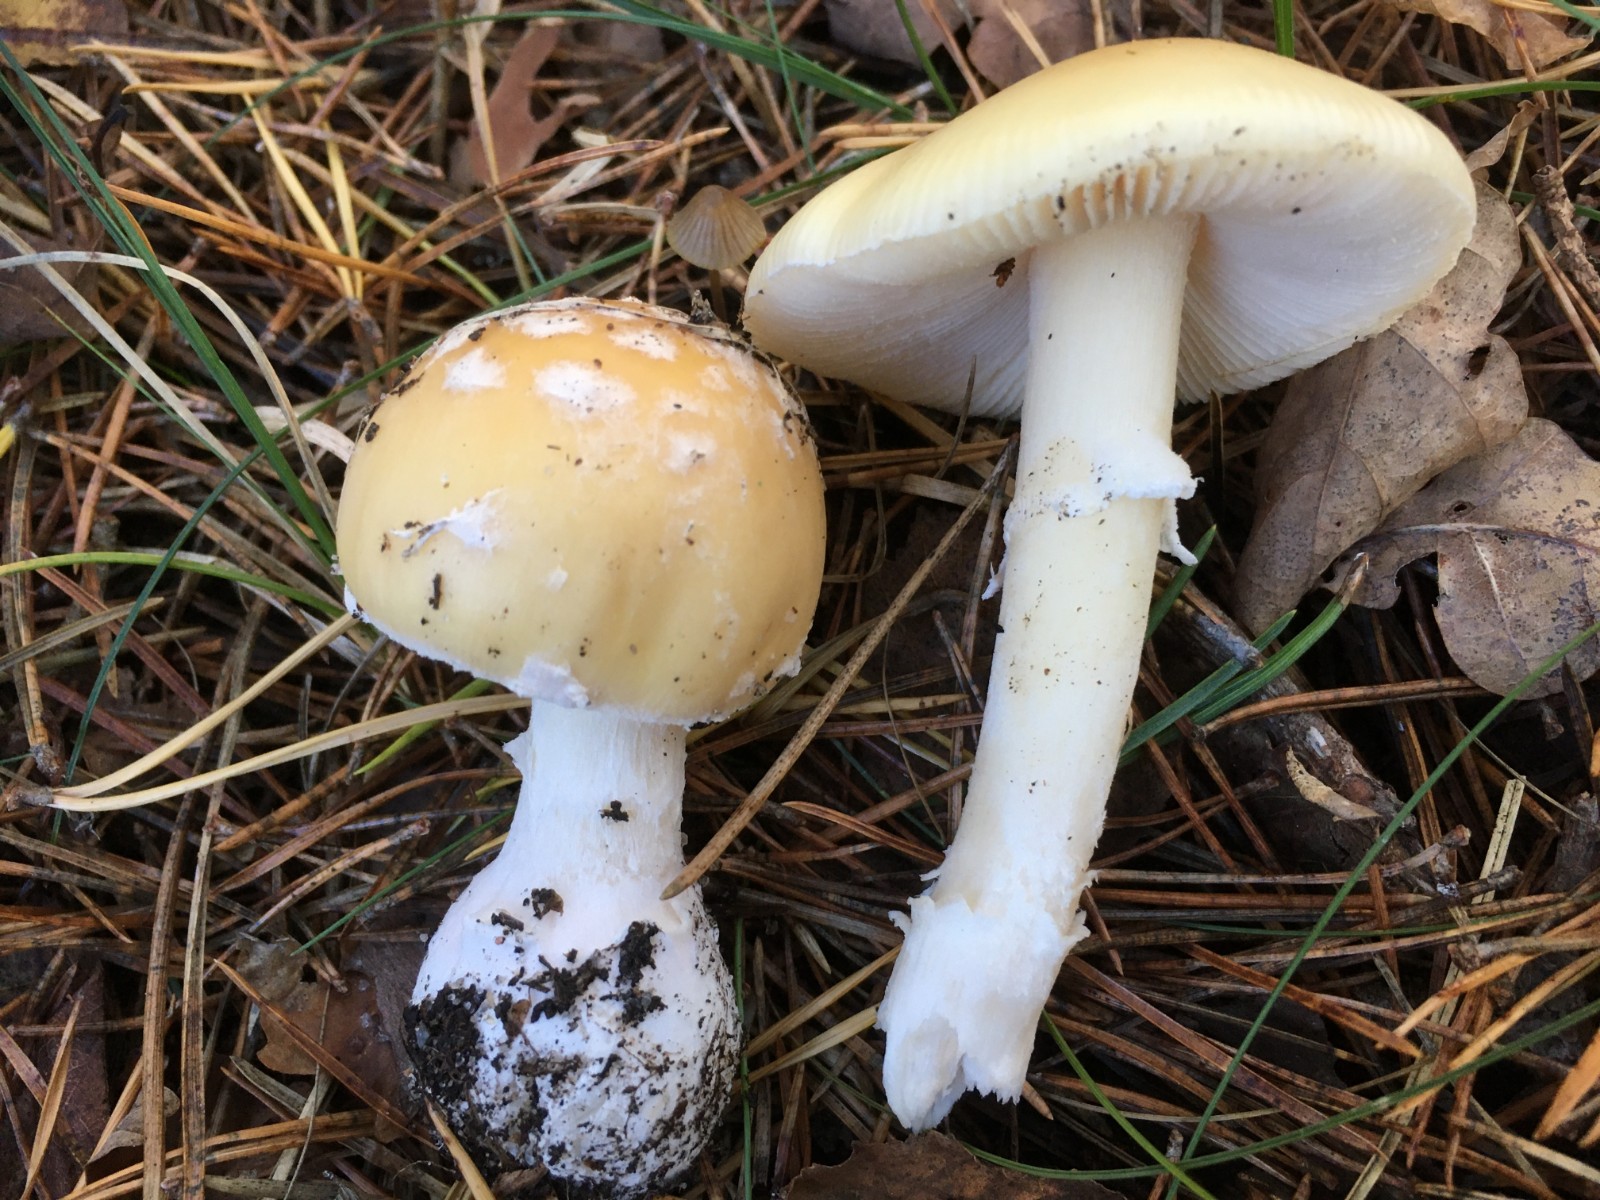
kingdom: Fungi
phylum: Basidiomycota
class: Agaricomycetes
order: Agaricales
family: Amanitaceae
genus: Amanita
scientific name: Amanita gemmata
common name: okkergul fluesvamp
